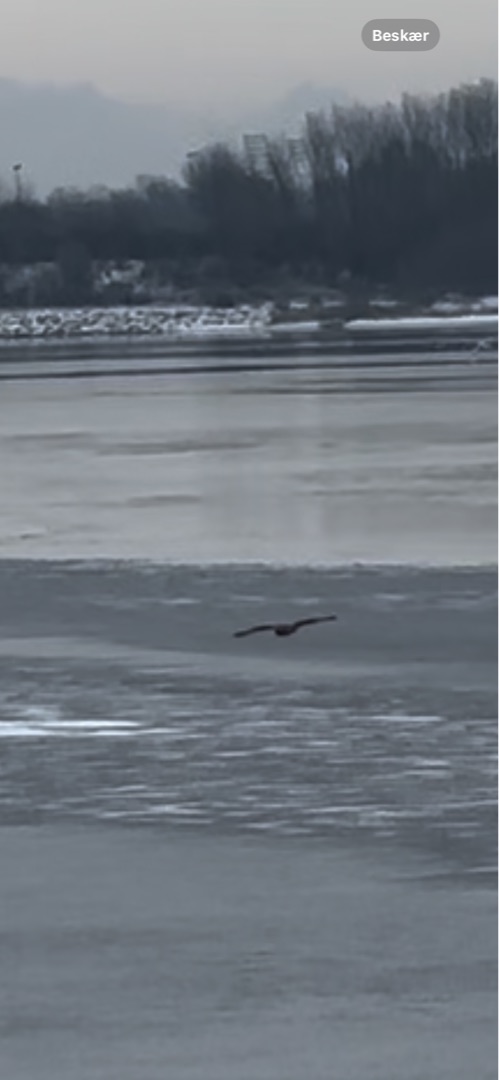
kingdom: Animalia
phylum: Chordata
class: Aves
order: Strigiformes
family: Strigidae
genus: Asio
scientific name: Asio flammeus
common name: Mosehornugle
